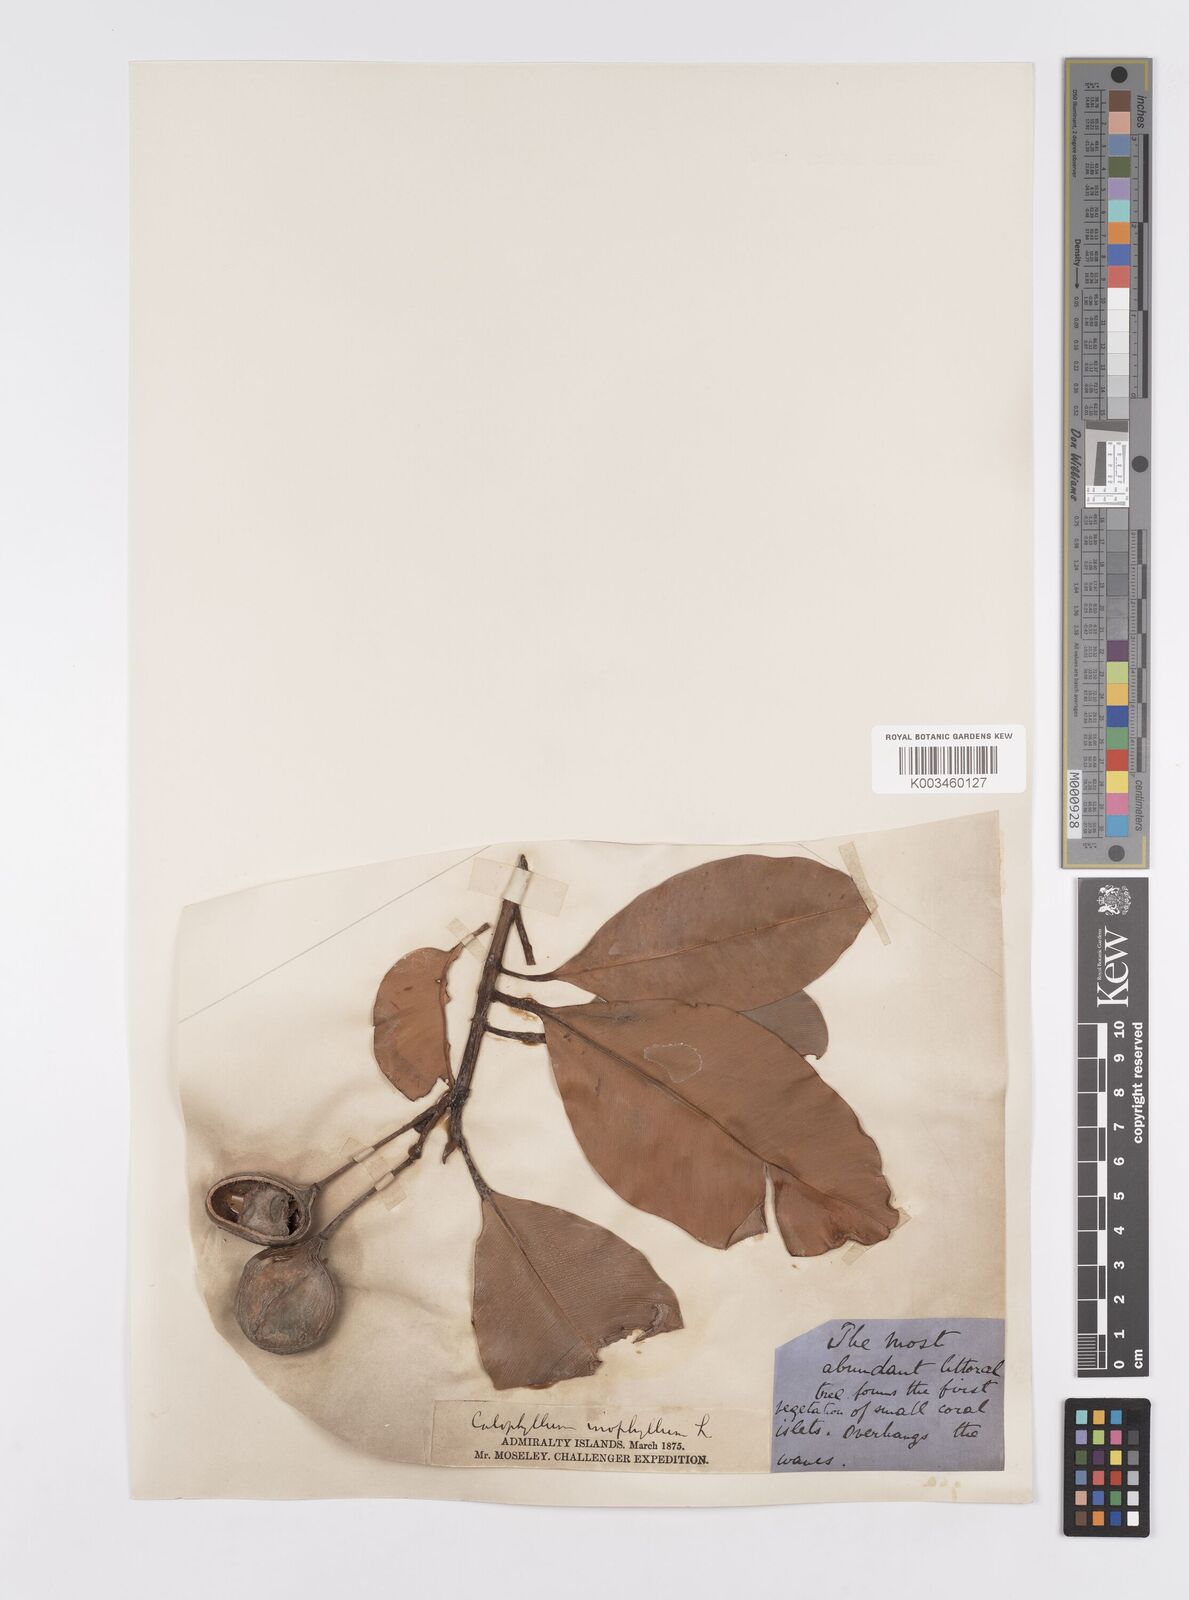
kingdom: Plantae
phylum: Tracheophyta
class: Magnoliopsida
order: Malpighiales
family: Calophyllaceae
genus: Calophyllum
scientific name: Calophyllum inophyllum
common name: Alexandrian laurel
